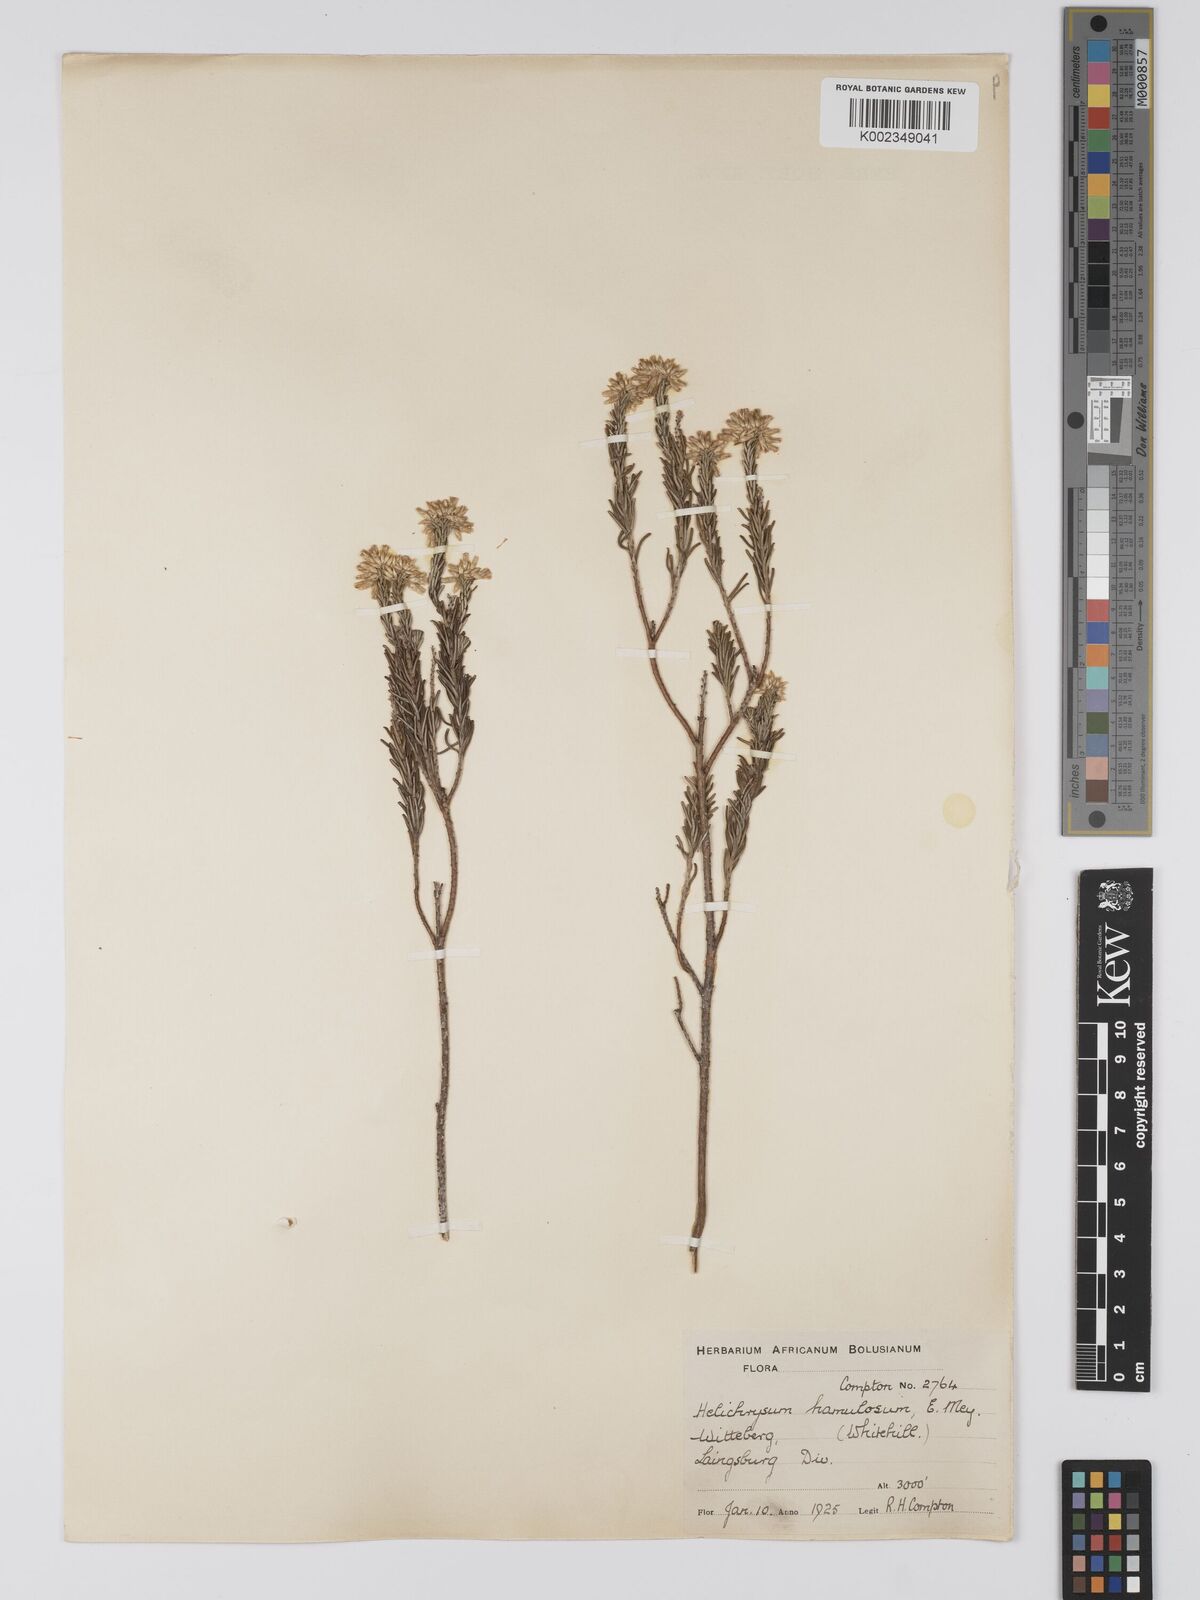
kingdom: Plantae
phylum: Tracheophyta
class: Magnoliopsida
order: Asterales
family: Asteraceae
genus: Helichrysum
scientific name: Helichrysum hamulosum
